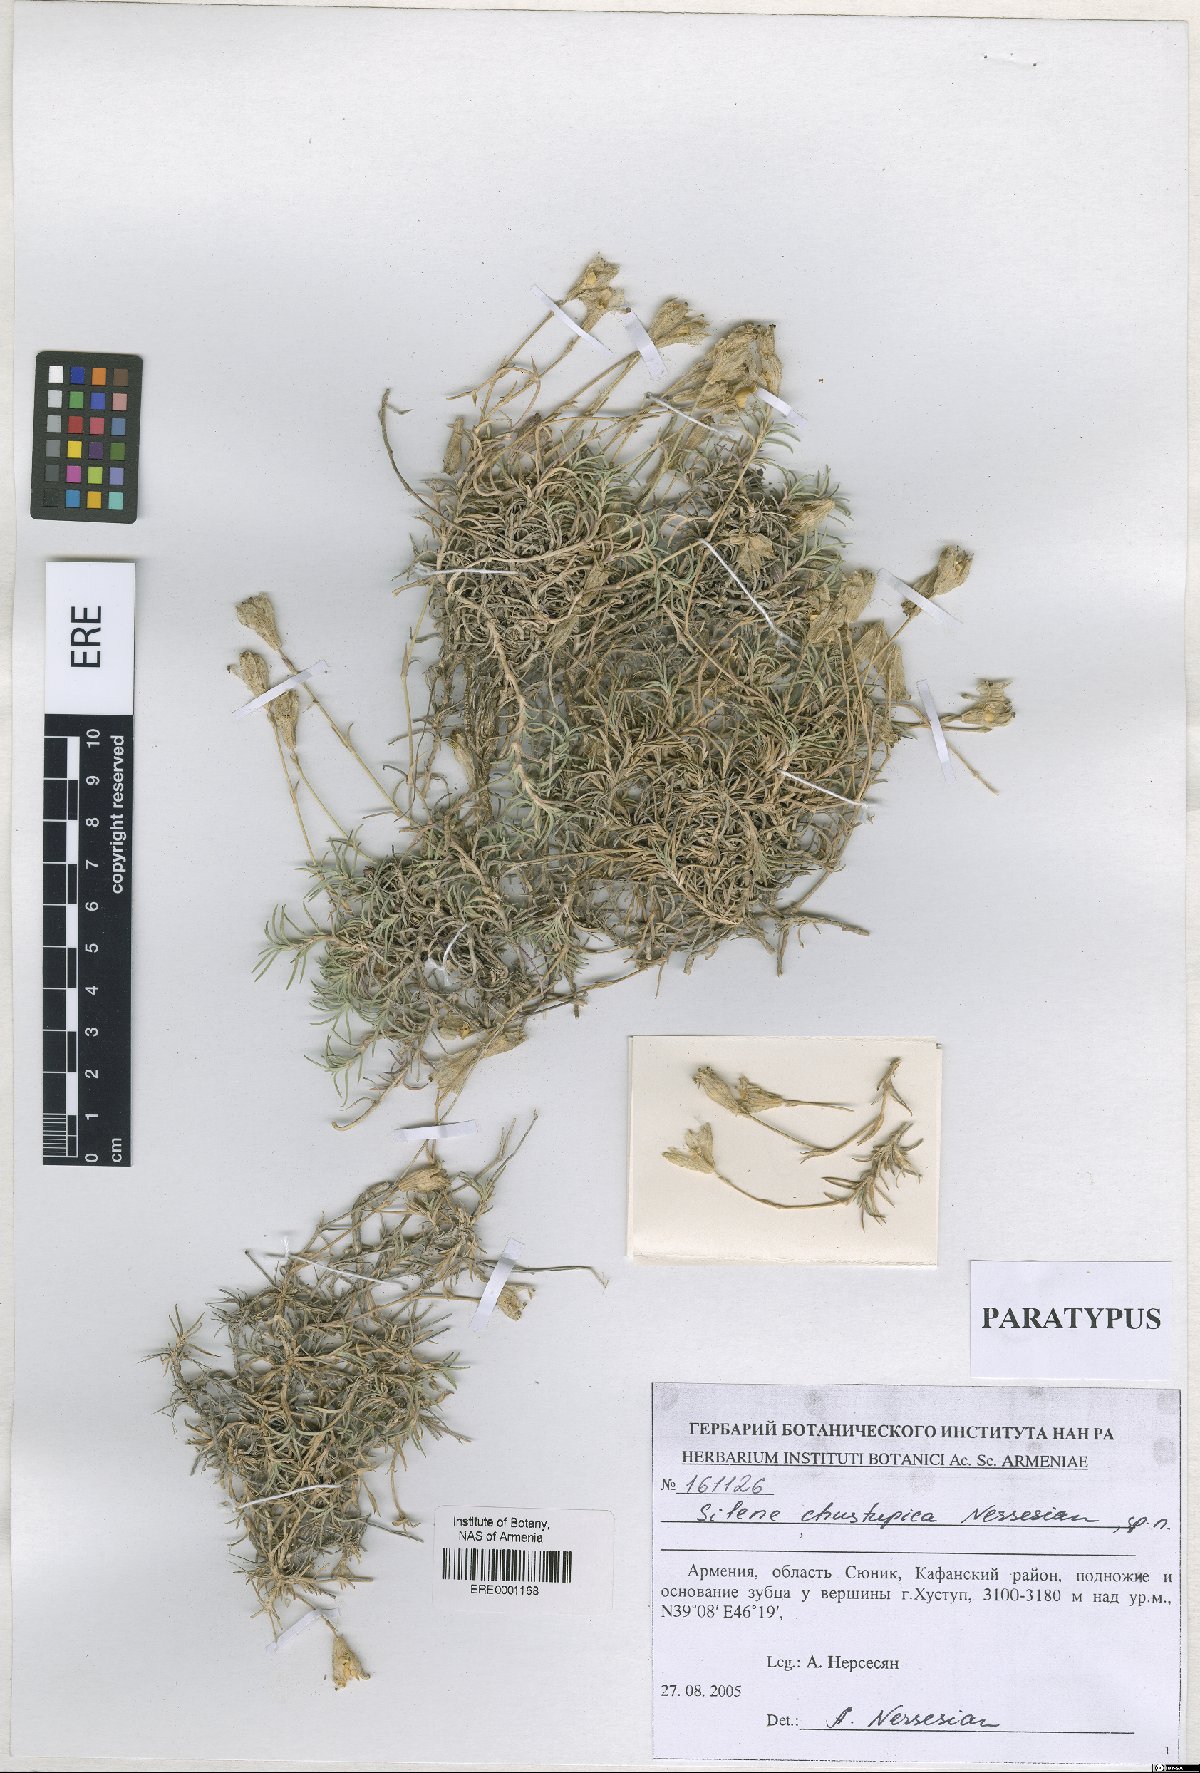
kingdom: Plantae
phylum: Tracheophyta
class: Magnoliopsida
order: Caryophyllales
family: Caryophyllaceae
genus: Silene
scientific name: Silene pungens
